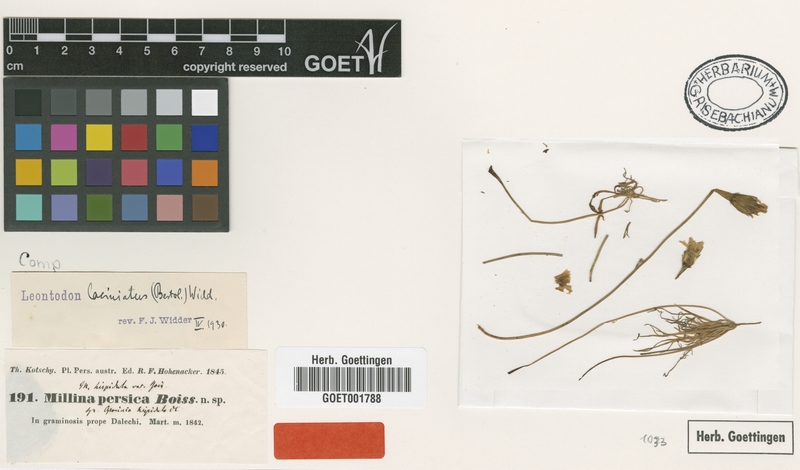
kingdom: Plantae
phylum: Tracheophyta
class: Magnoliopsida
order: Asterales
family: Asteraceae
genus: Leontodon
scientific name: Leontodon laciniatus
